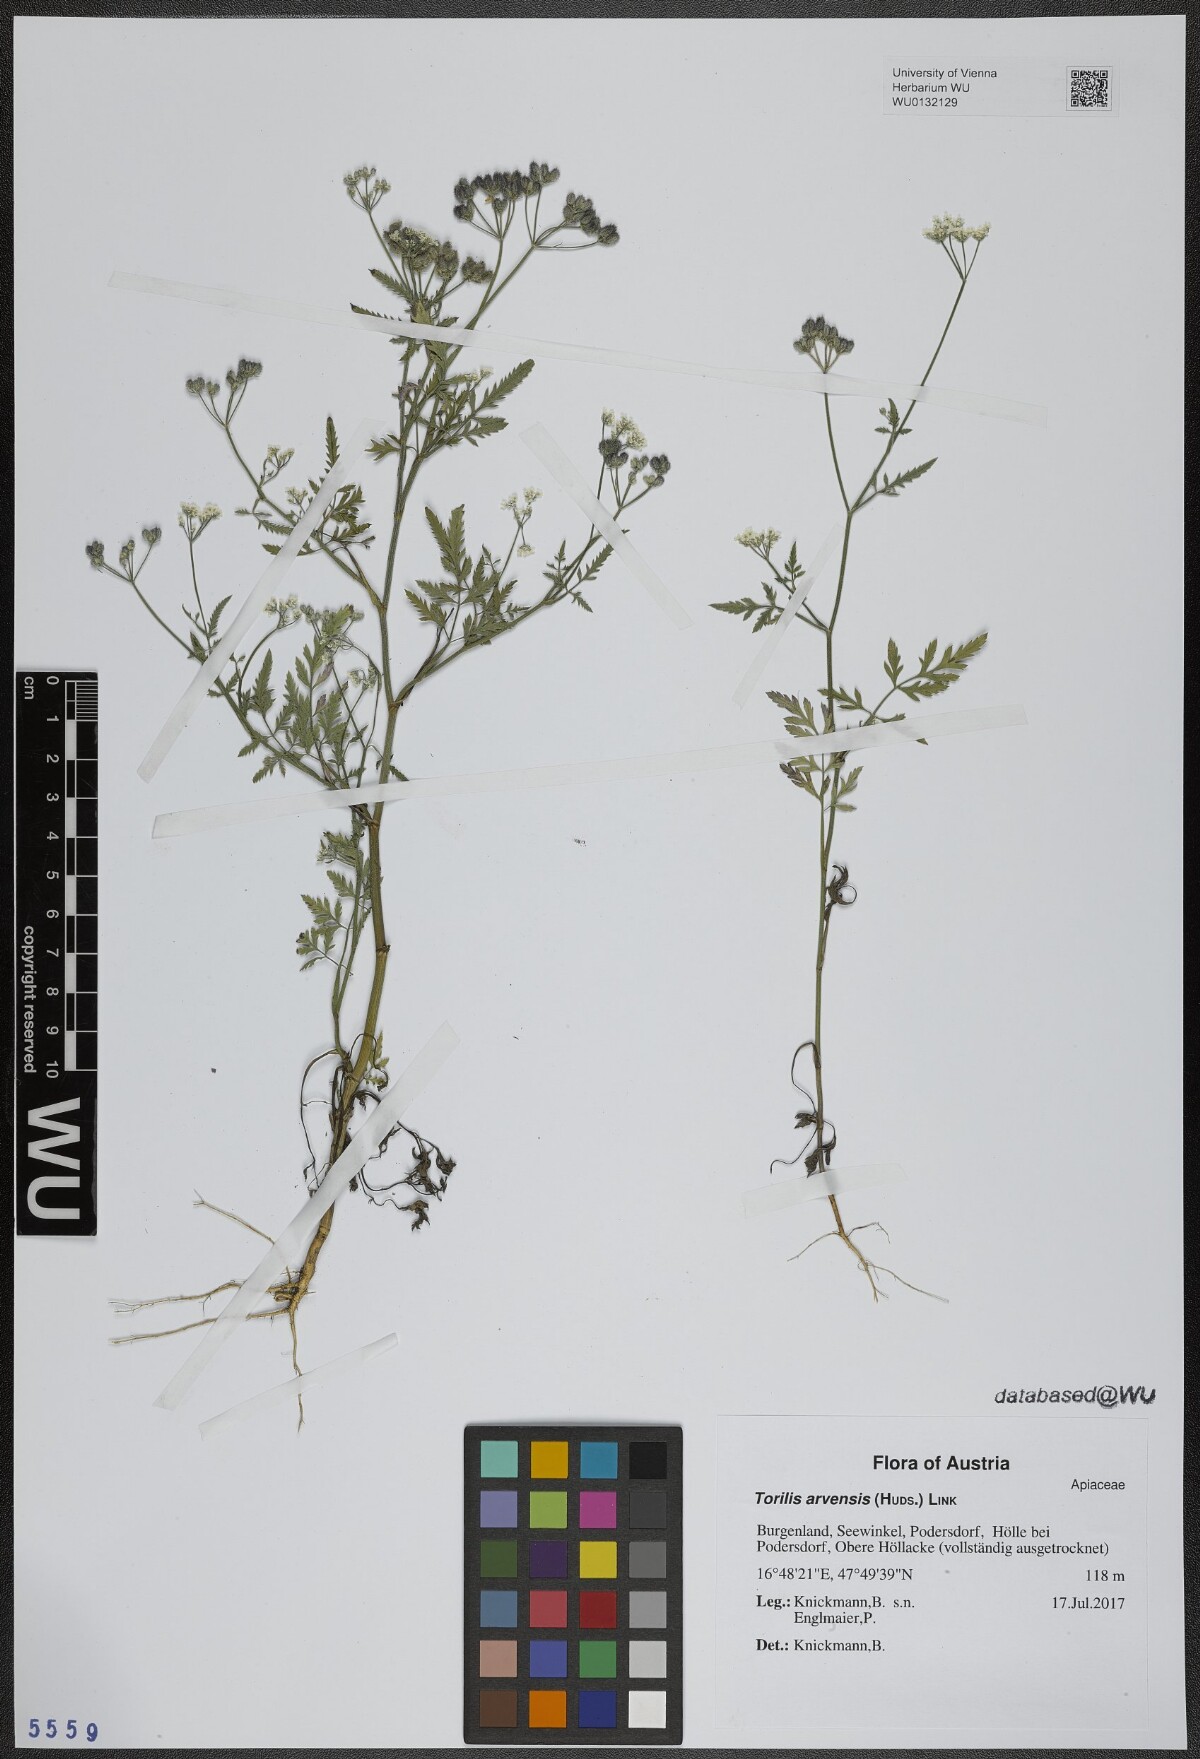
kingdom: Plantae
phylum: Tracheophyta
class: Magnoliopsida
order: Apiales
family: Apiaceae
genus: Torilis
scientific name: Torilis arvensis
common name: Spreading hedge-parsley
